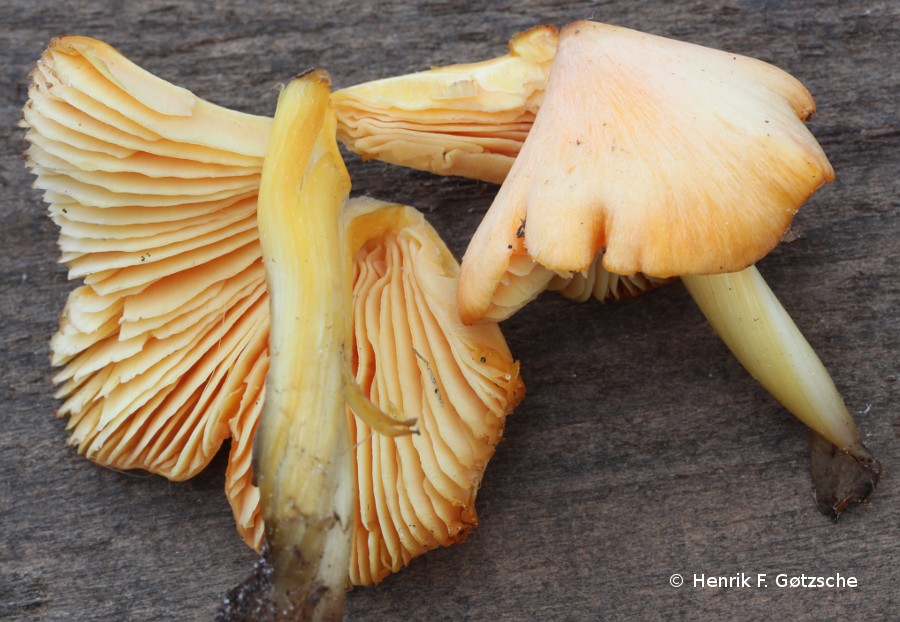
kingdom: Fungi
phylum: Basidiomycota
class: Agaricomycetes
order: Agaricales
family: Hygrophoraceae
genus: Hygrocybe
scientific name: Hygrocybe conica
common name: kegle-vokshat
